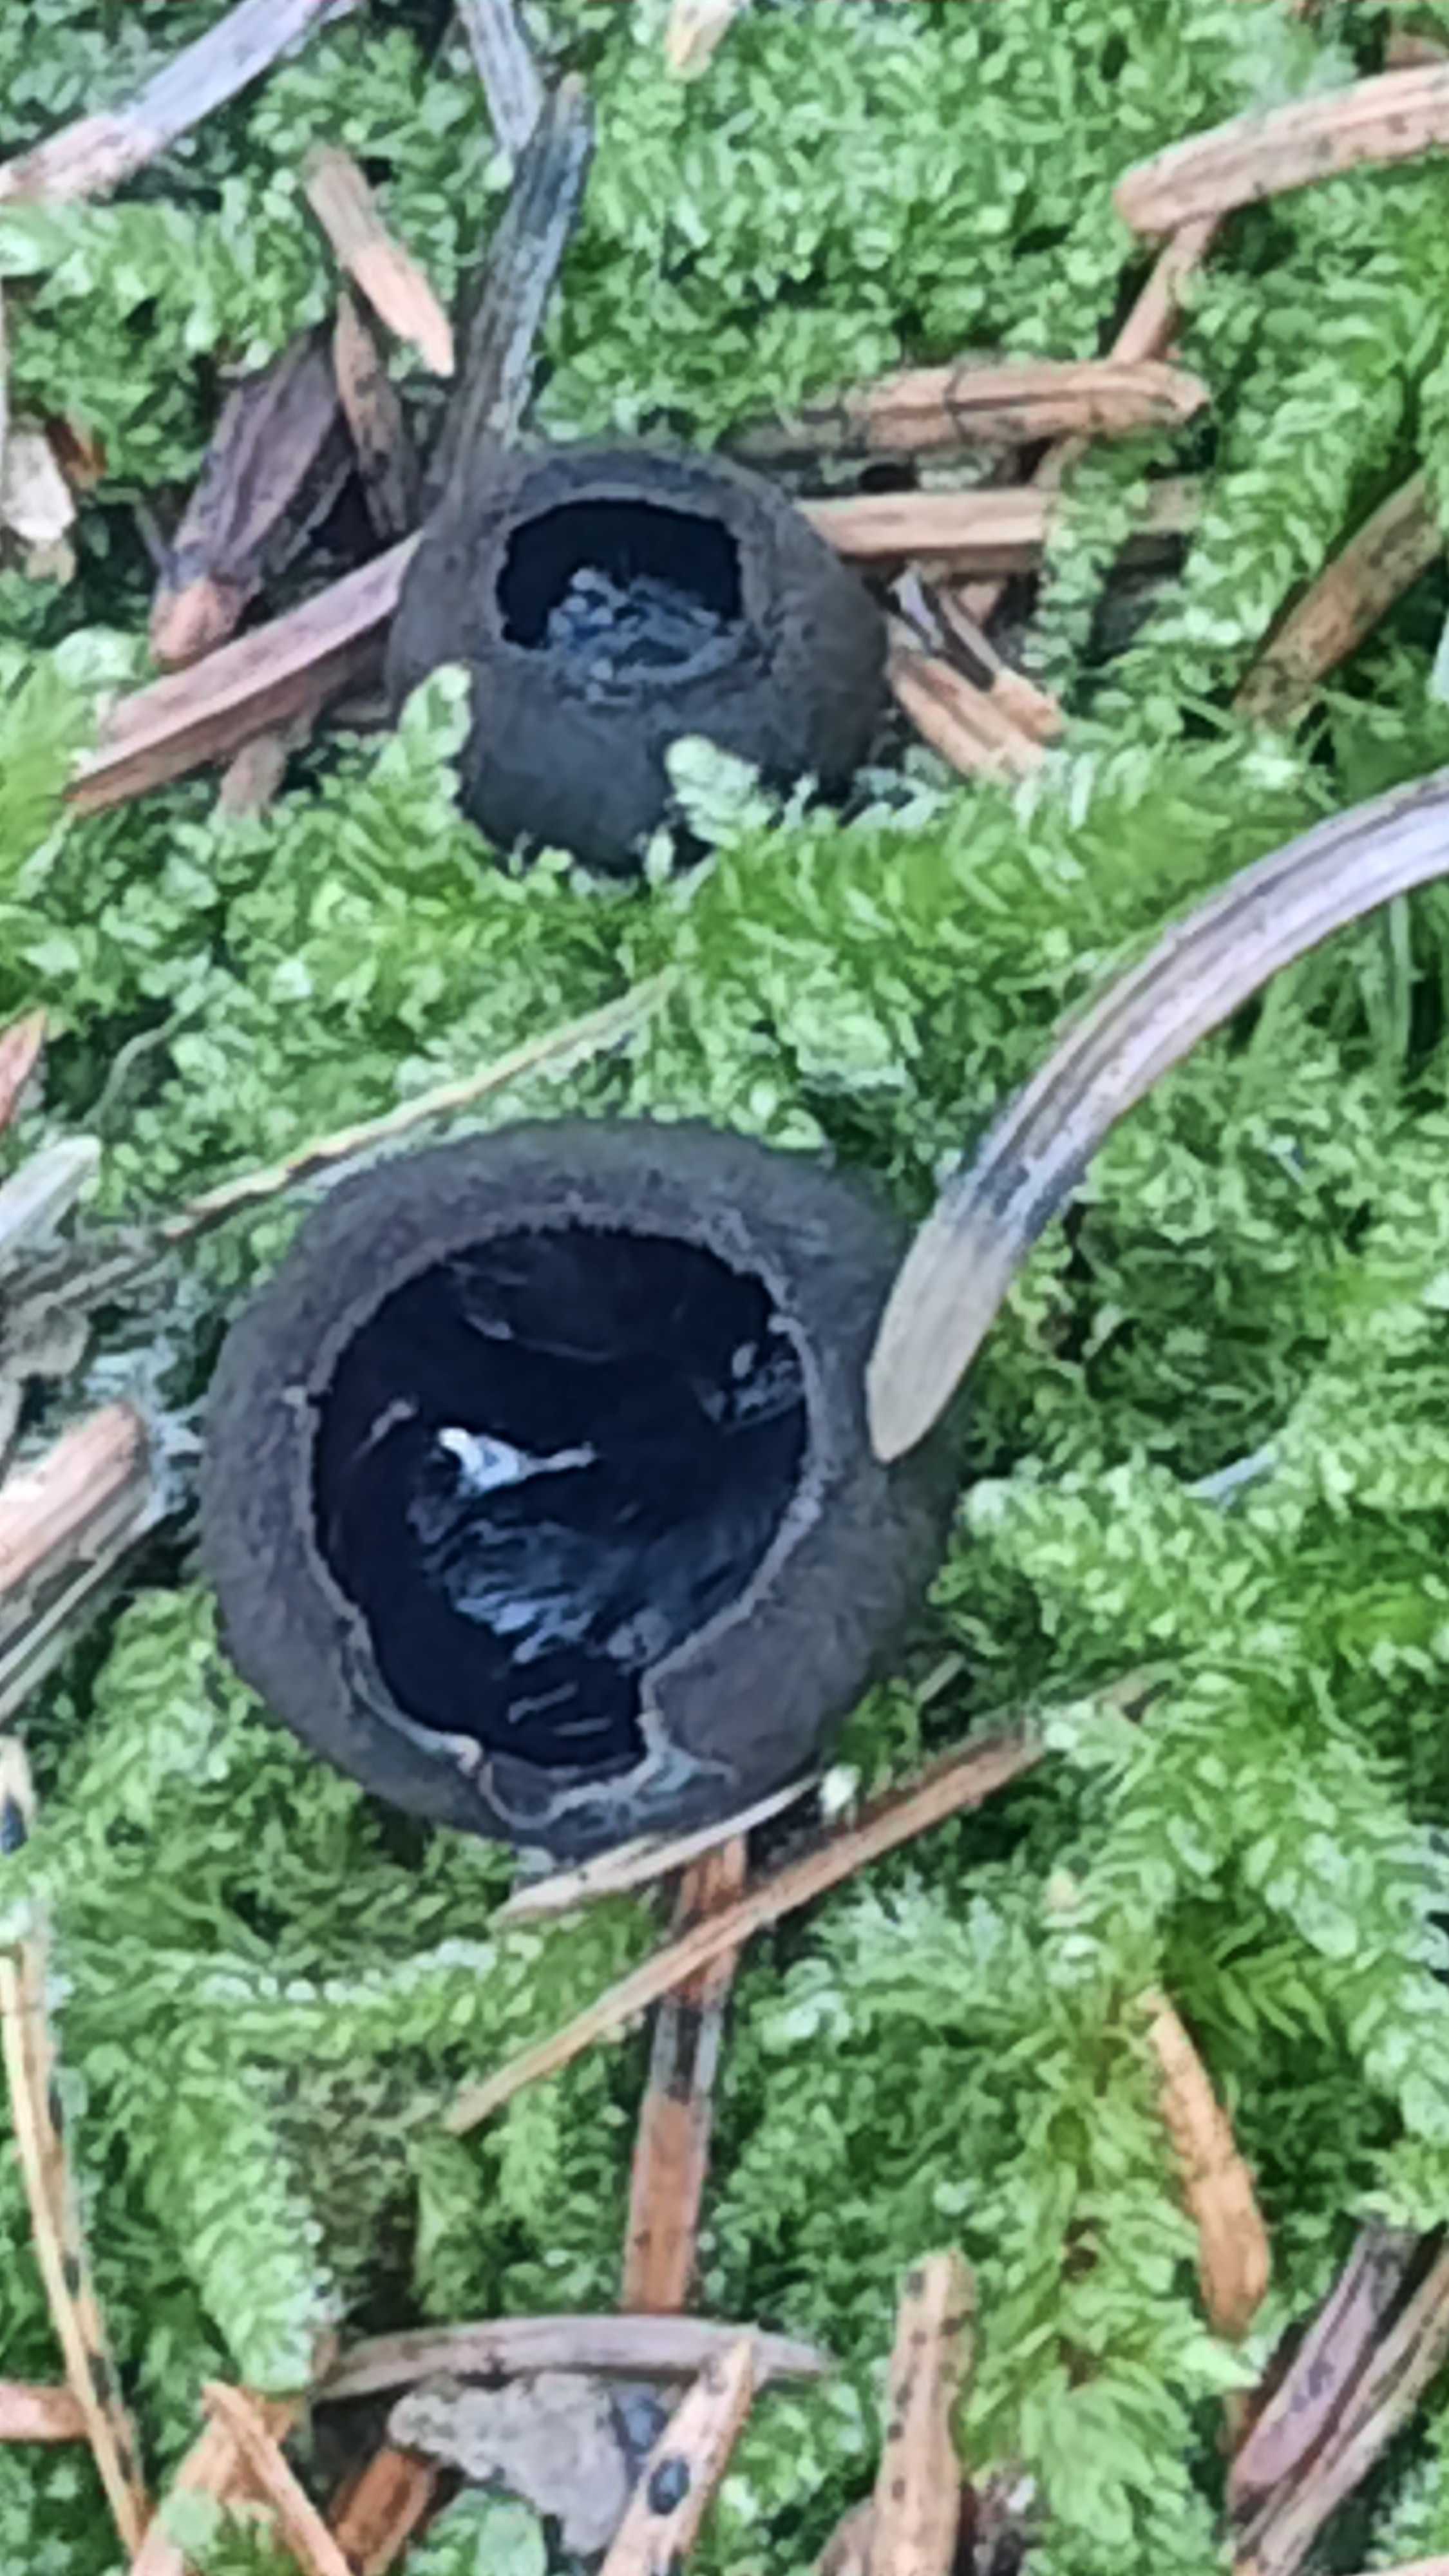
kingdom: Fungi
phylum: Ascomycota
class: Pezizomycetes
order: Pezizales
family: Sarcosomataceae
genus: Pseudoplectania
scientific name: Pseudoplectania nigrella
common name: almindelig sortbæger
